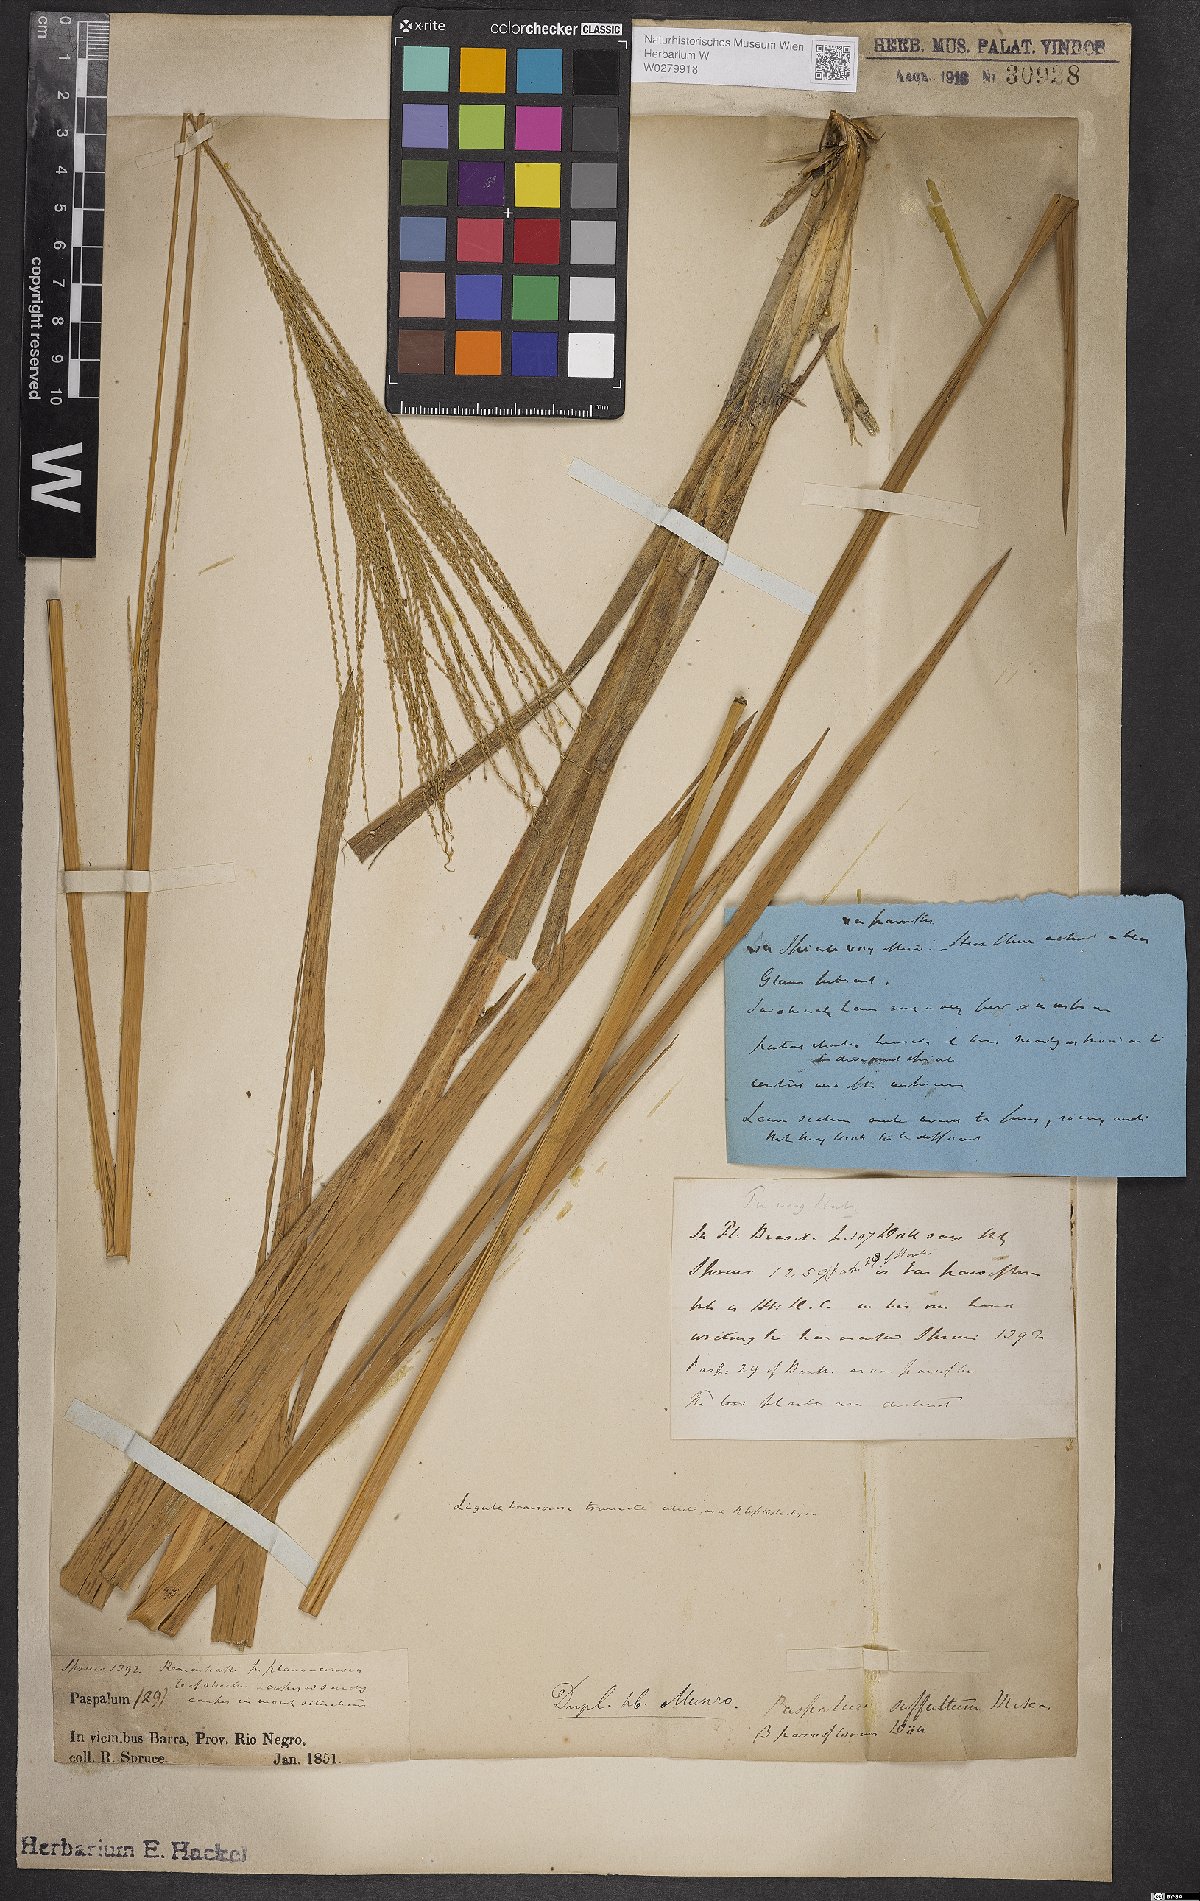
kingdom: Plantae
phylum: Tracheophyta
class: Liliopsida
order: Poales
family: Poaceae
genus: Axonopus
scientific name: Axonopus scoparius
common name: Imperial grass
